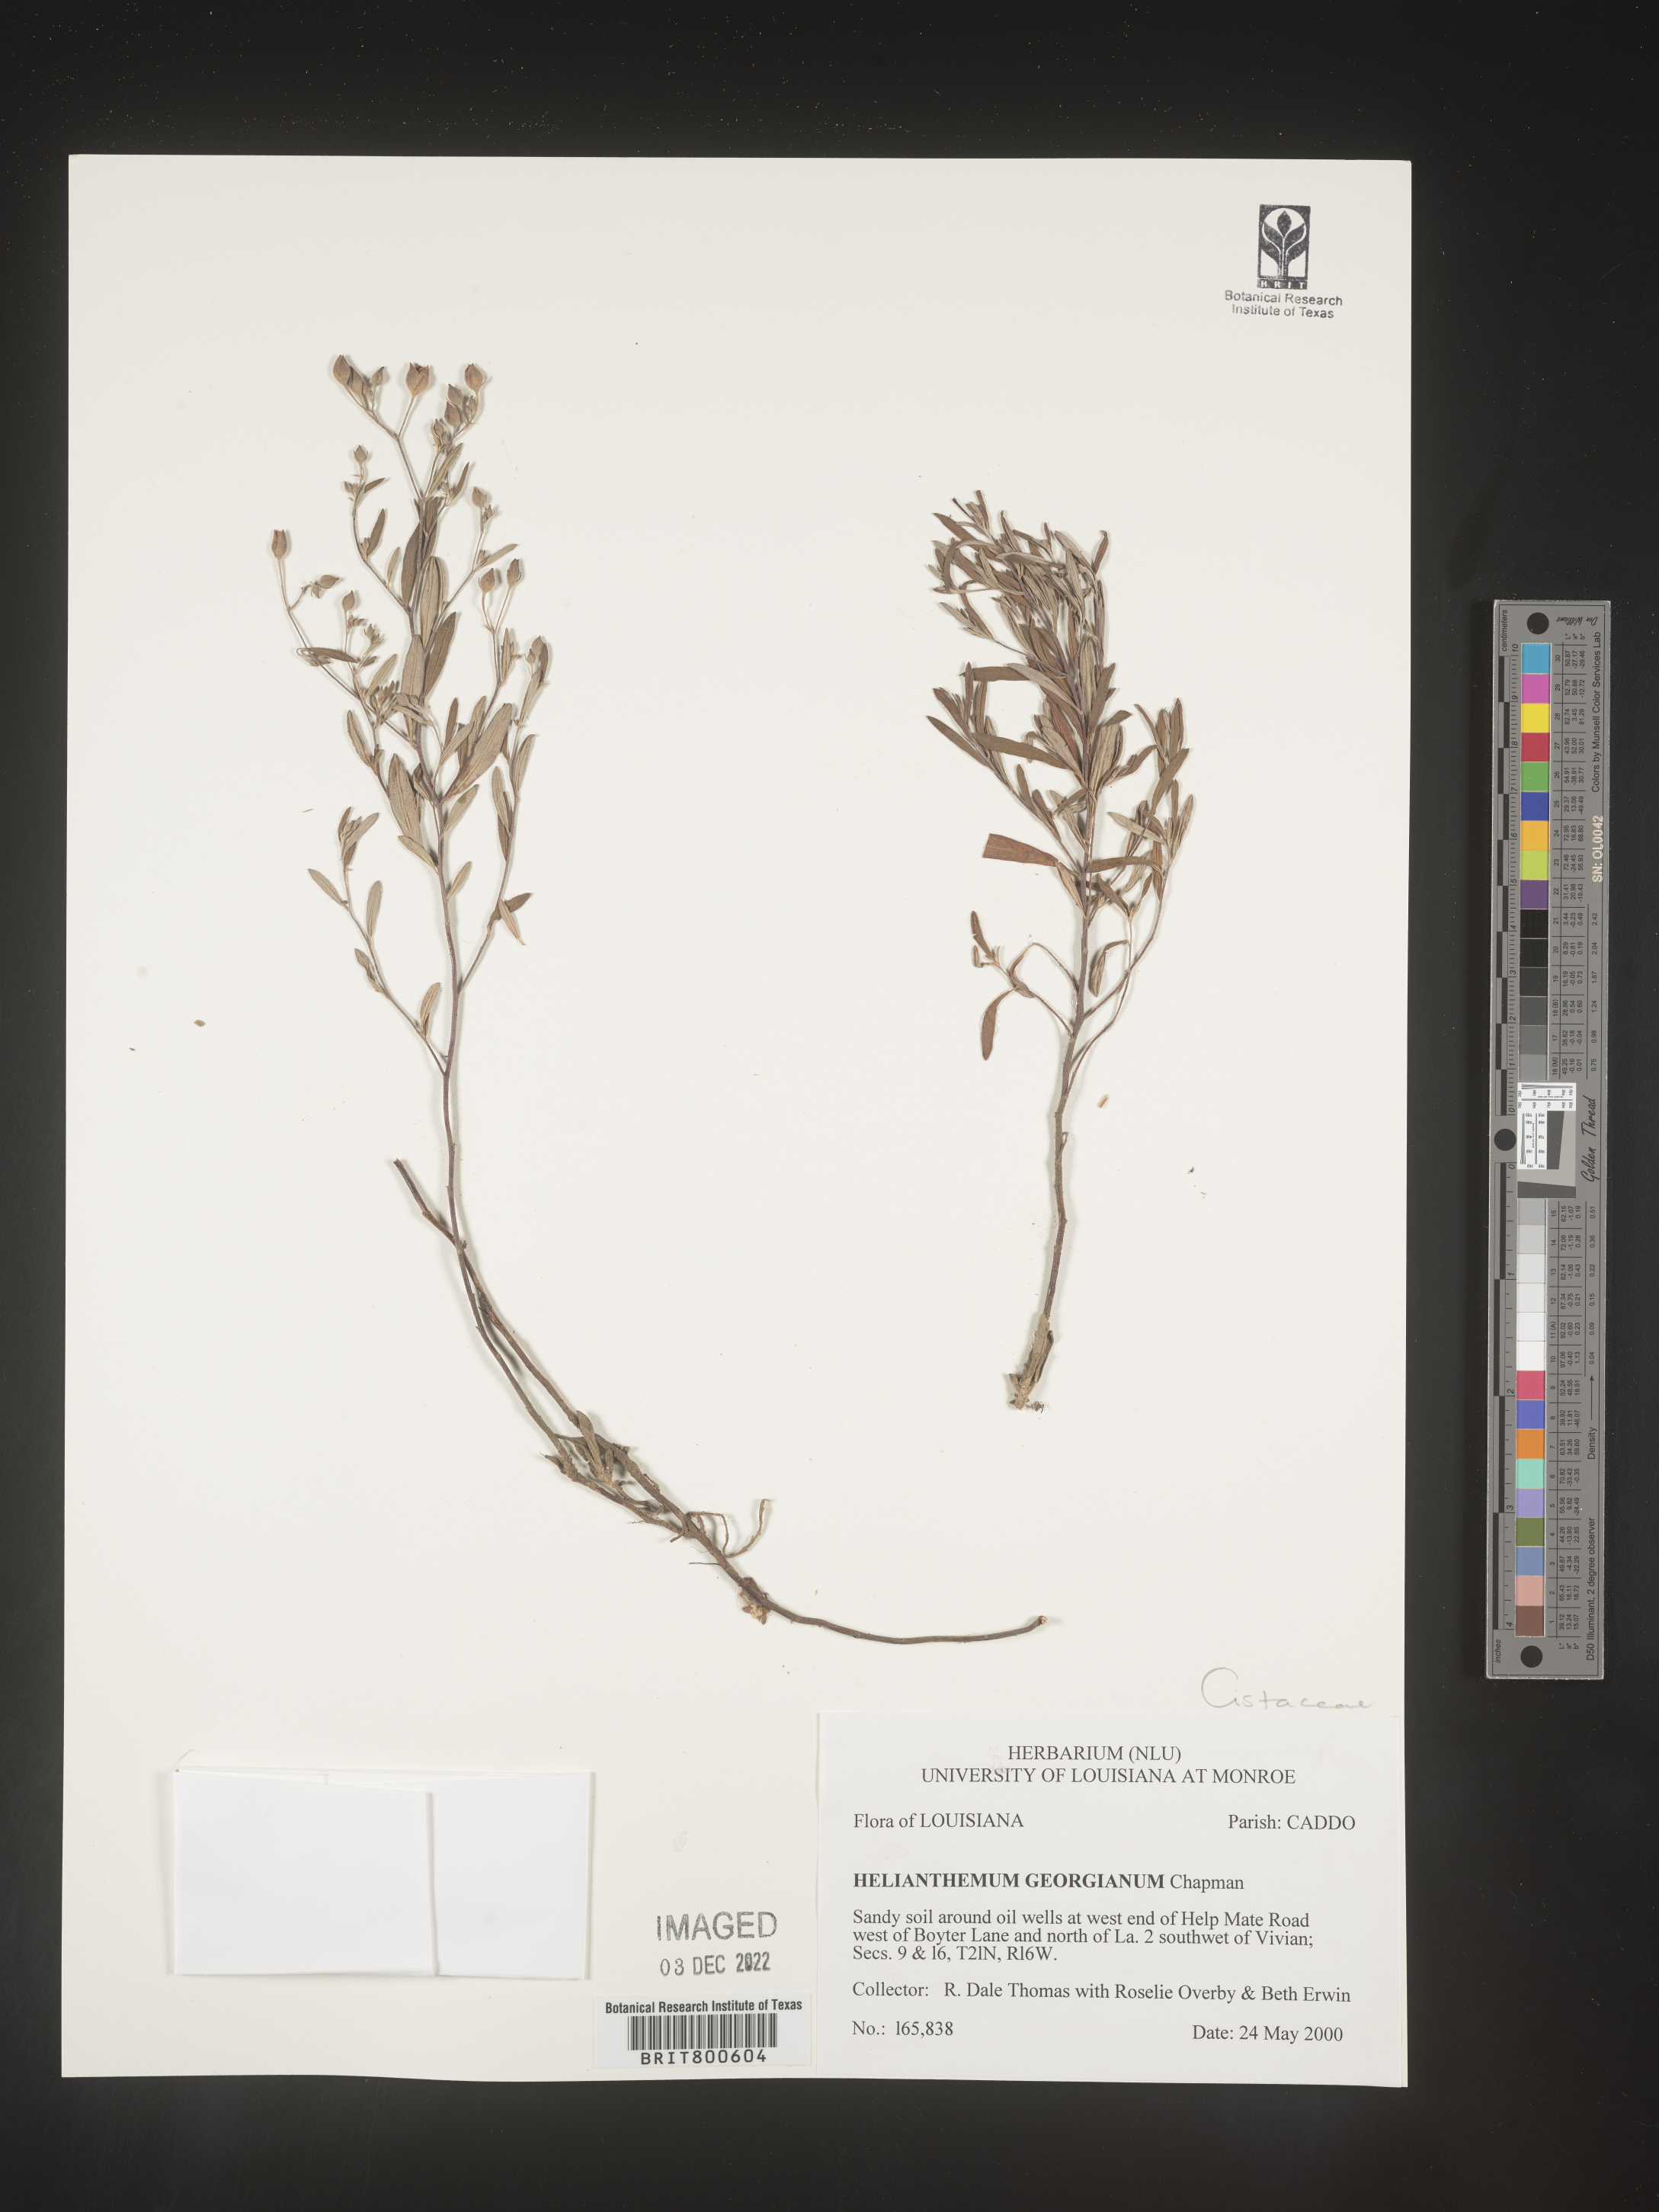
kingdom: Plantae
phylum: Tracheophyta
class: Magnoliopsida
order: Malvales
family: Cistaceae
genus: Crocanthemum
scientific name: Crocanthemum georgianum
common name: Georgia frostweed
